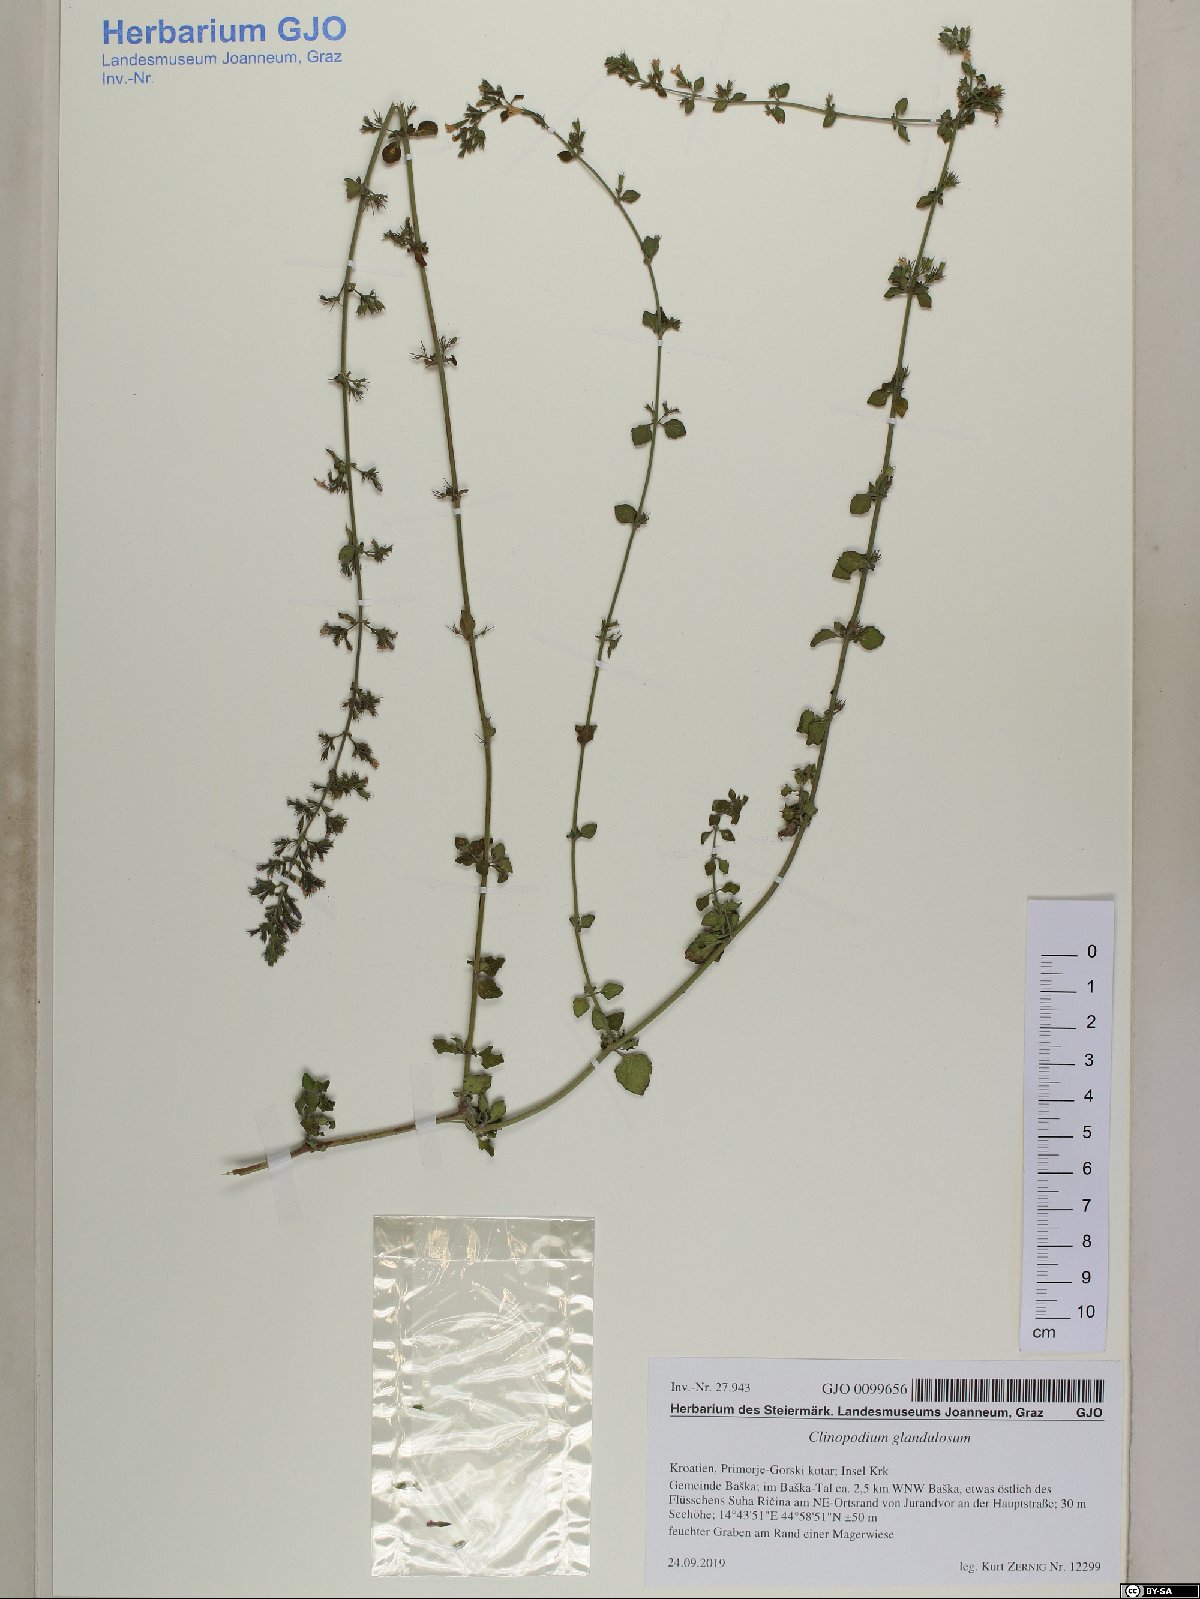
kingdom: Plantae
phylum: Tracheophyta
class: Magnoliopsida
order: Lamiales
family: Lamiaceae
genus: Clinopodium
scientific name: Clinopodium nepeta
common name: Lesser calamint
